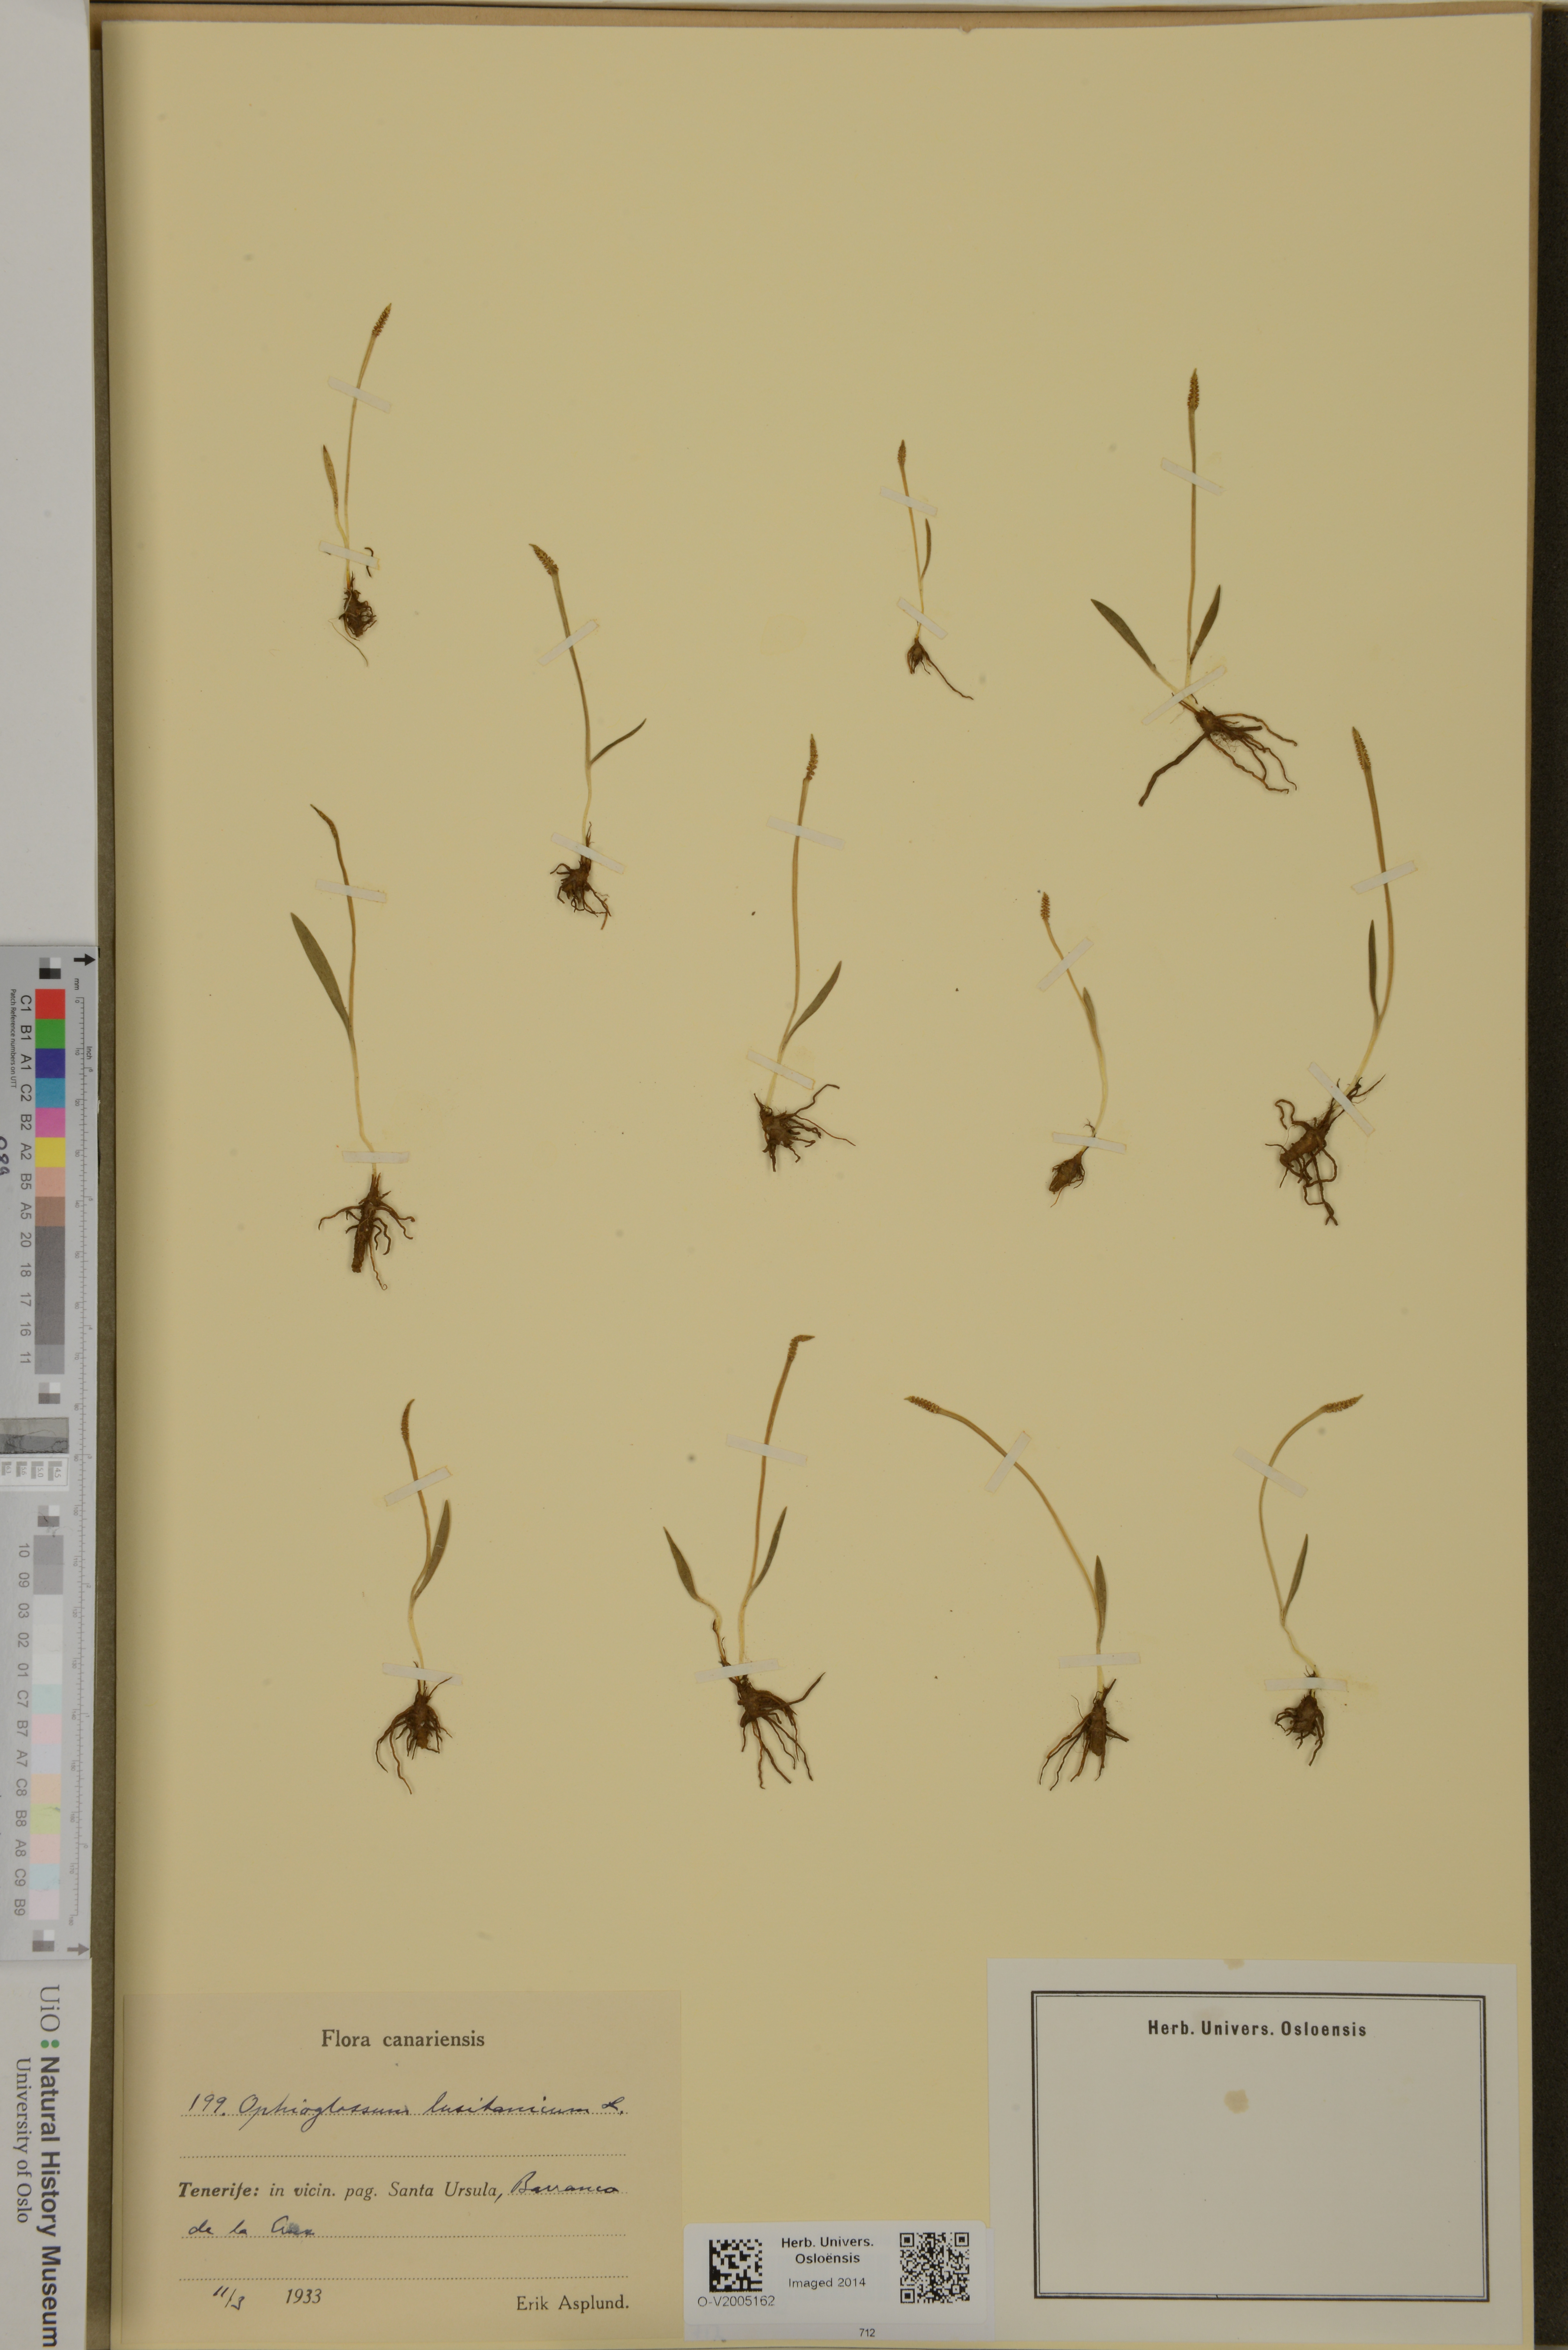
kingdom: Plantae
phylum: Tracheophyta
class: Polypodiopsida
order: Ophioglossales
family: Ophioglossaceae
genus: Ophioglossum
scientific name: Ophioglossum lusitanicum
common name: Least adder's-tongue
